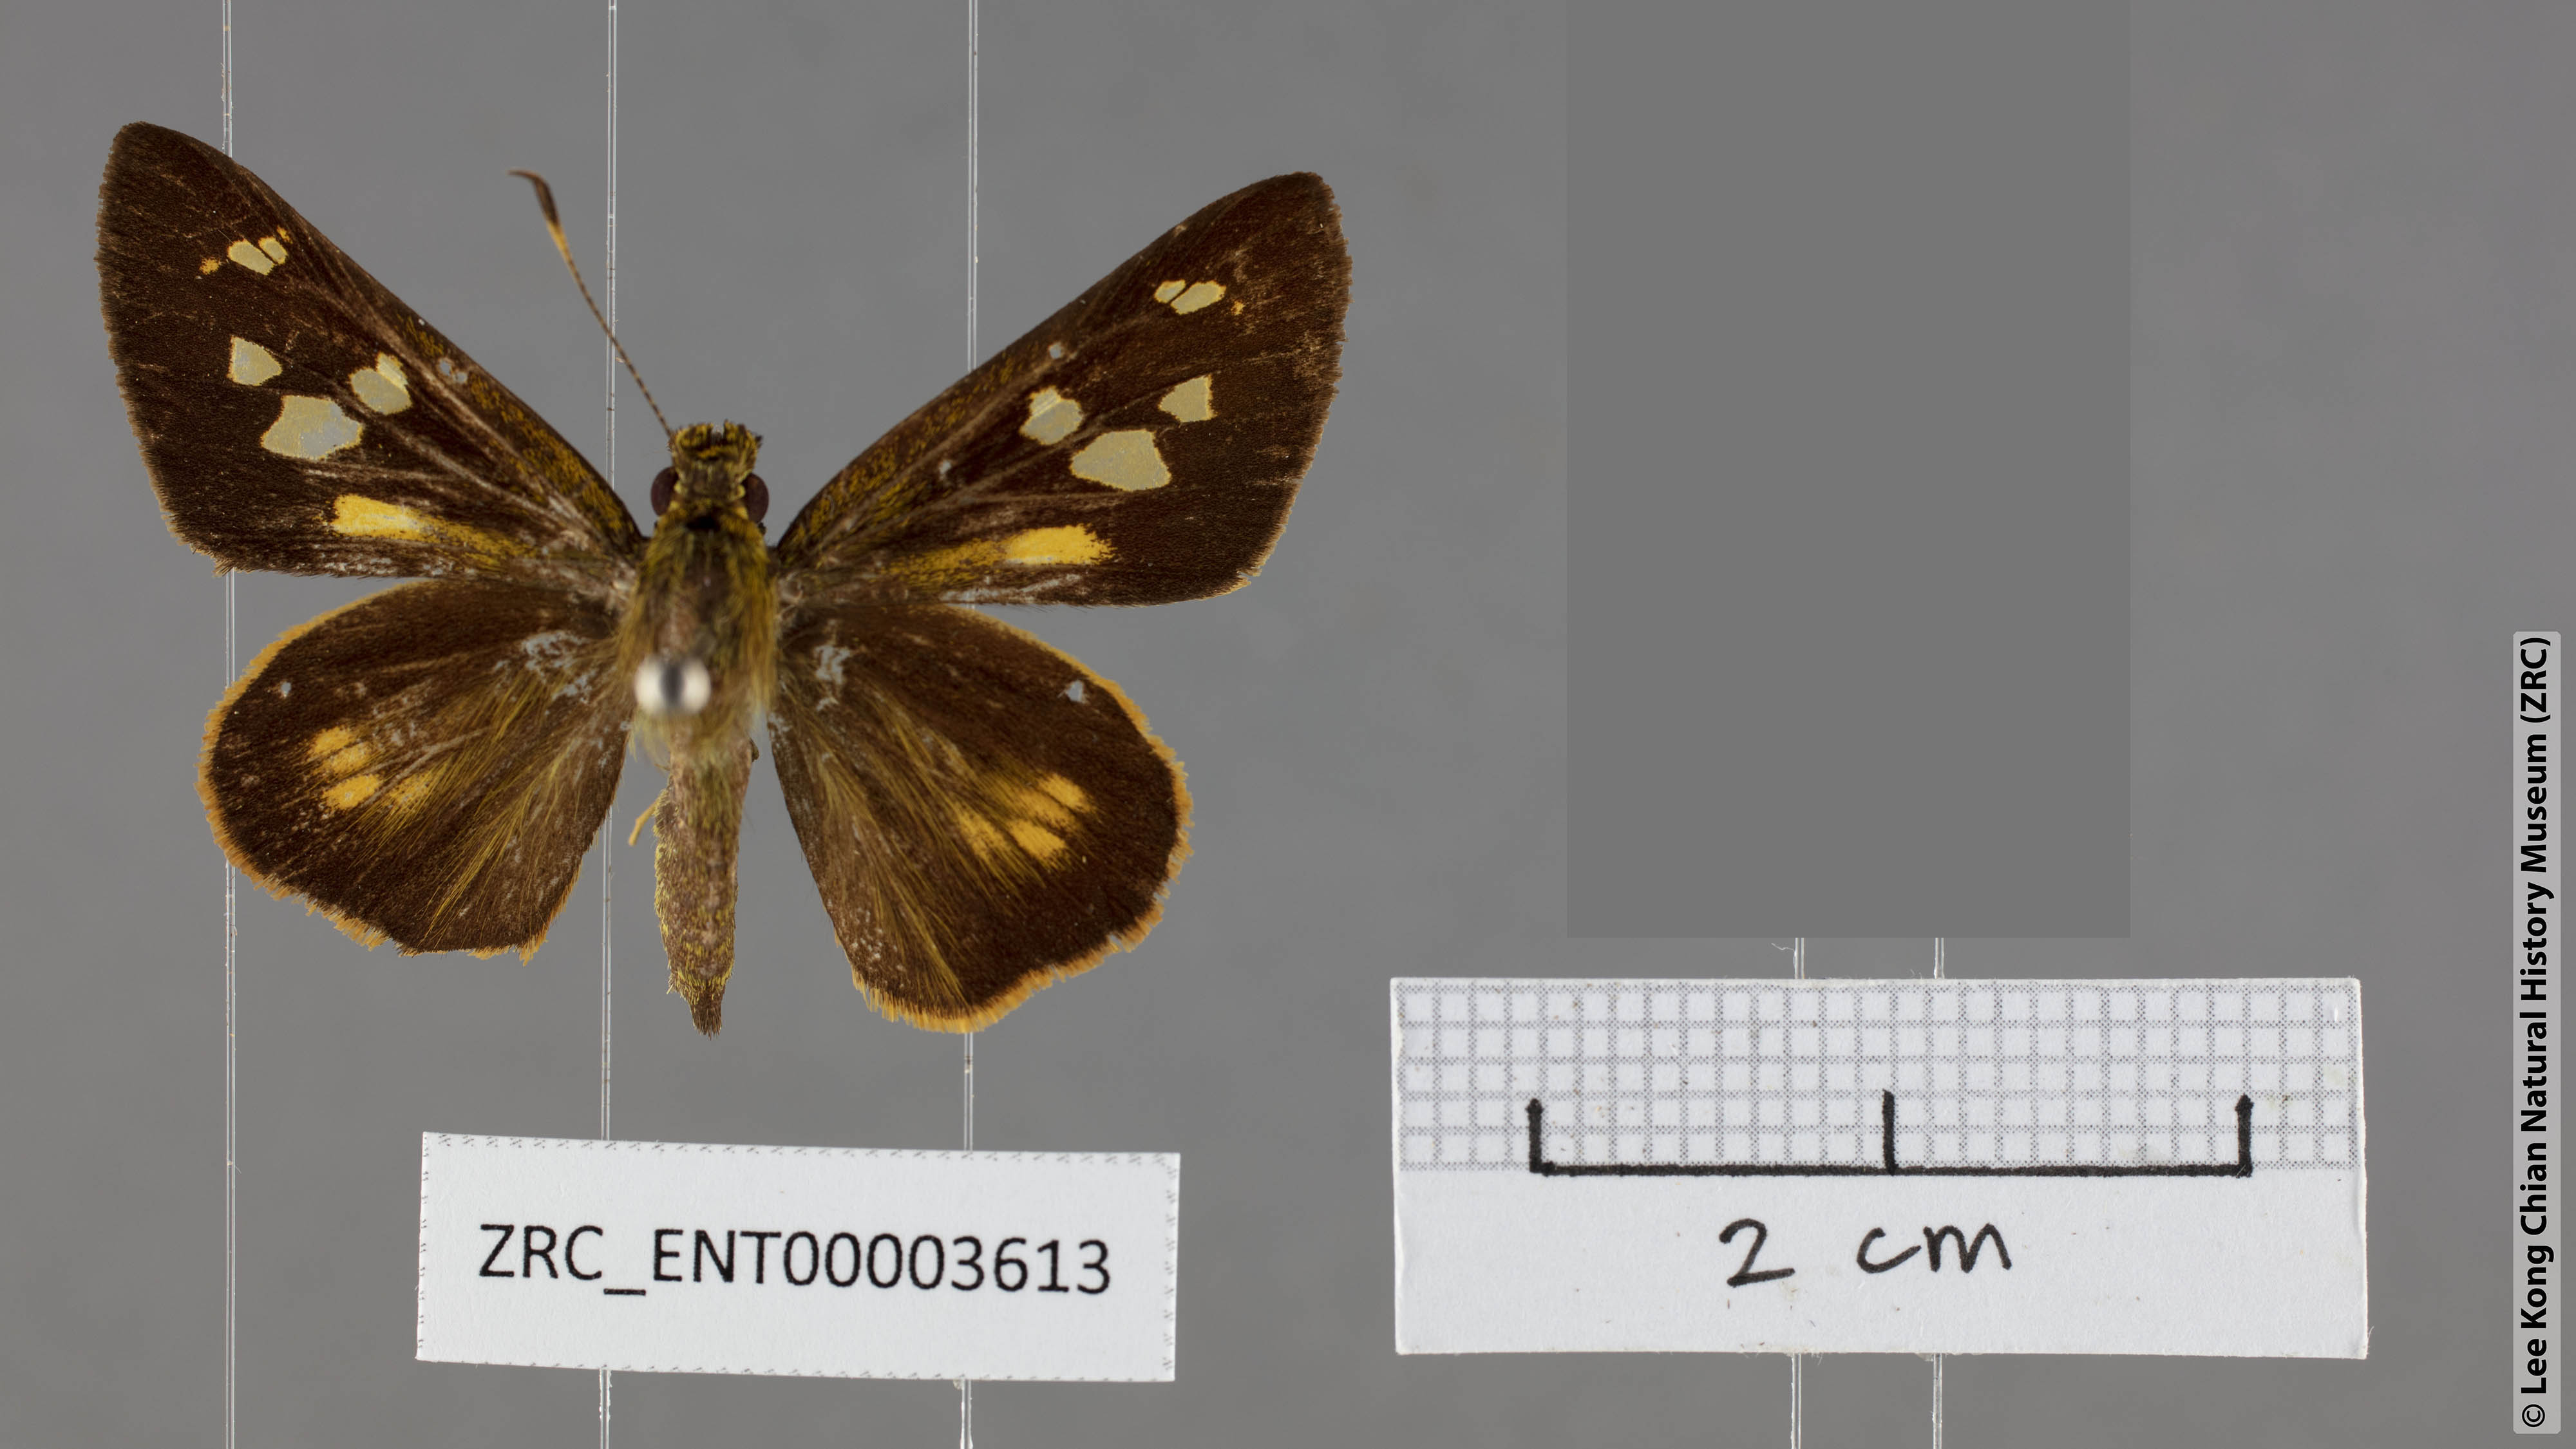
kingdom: Animalia
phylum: Arthropoda
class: Insecta
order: Lepidoptera
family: Hesperiidae
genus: Xanthoneura
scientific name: Xanthoneura corissa
